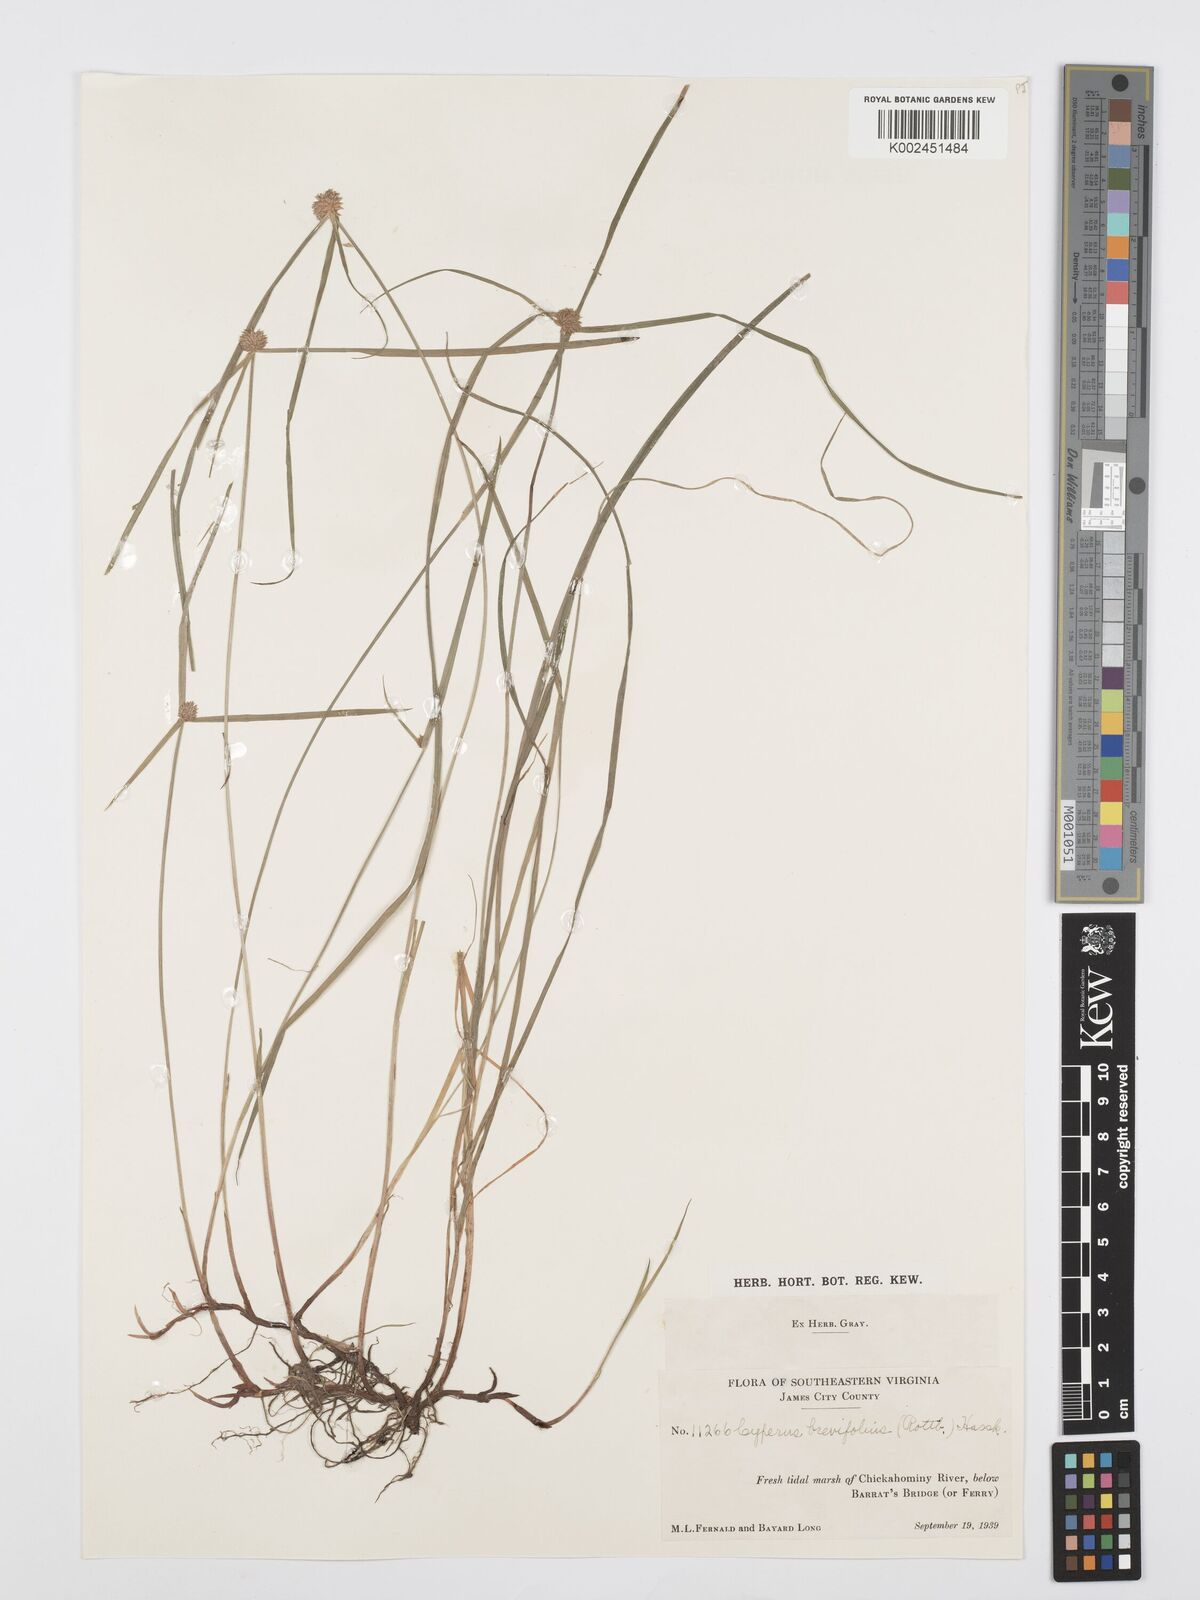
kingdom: Plantae
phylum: Tracheophyta
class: Liliopsida
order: Poales
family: Cyperaceae
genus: Cyperus
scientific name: Cyperus brevifolius
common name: Globe kyllinga
